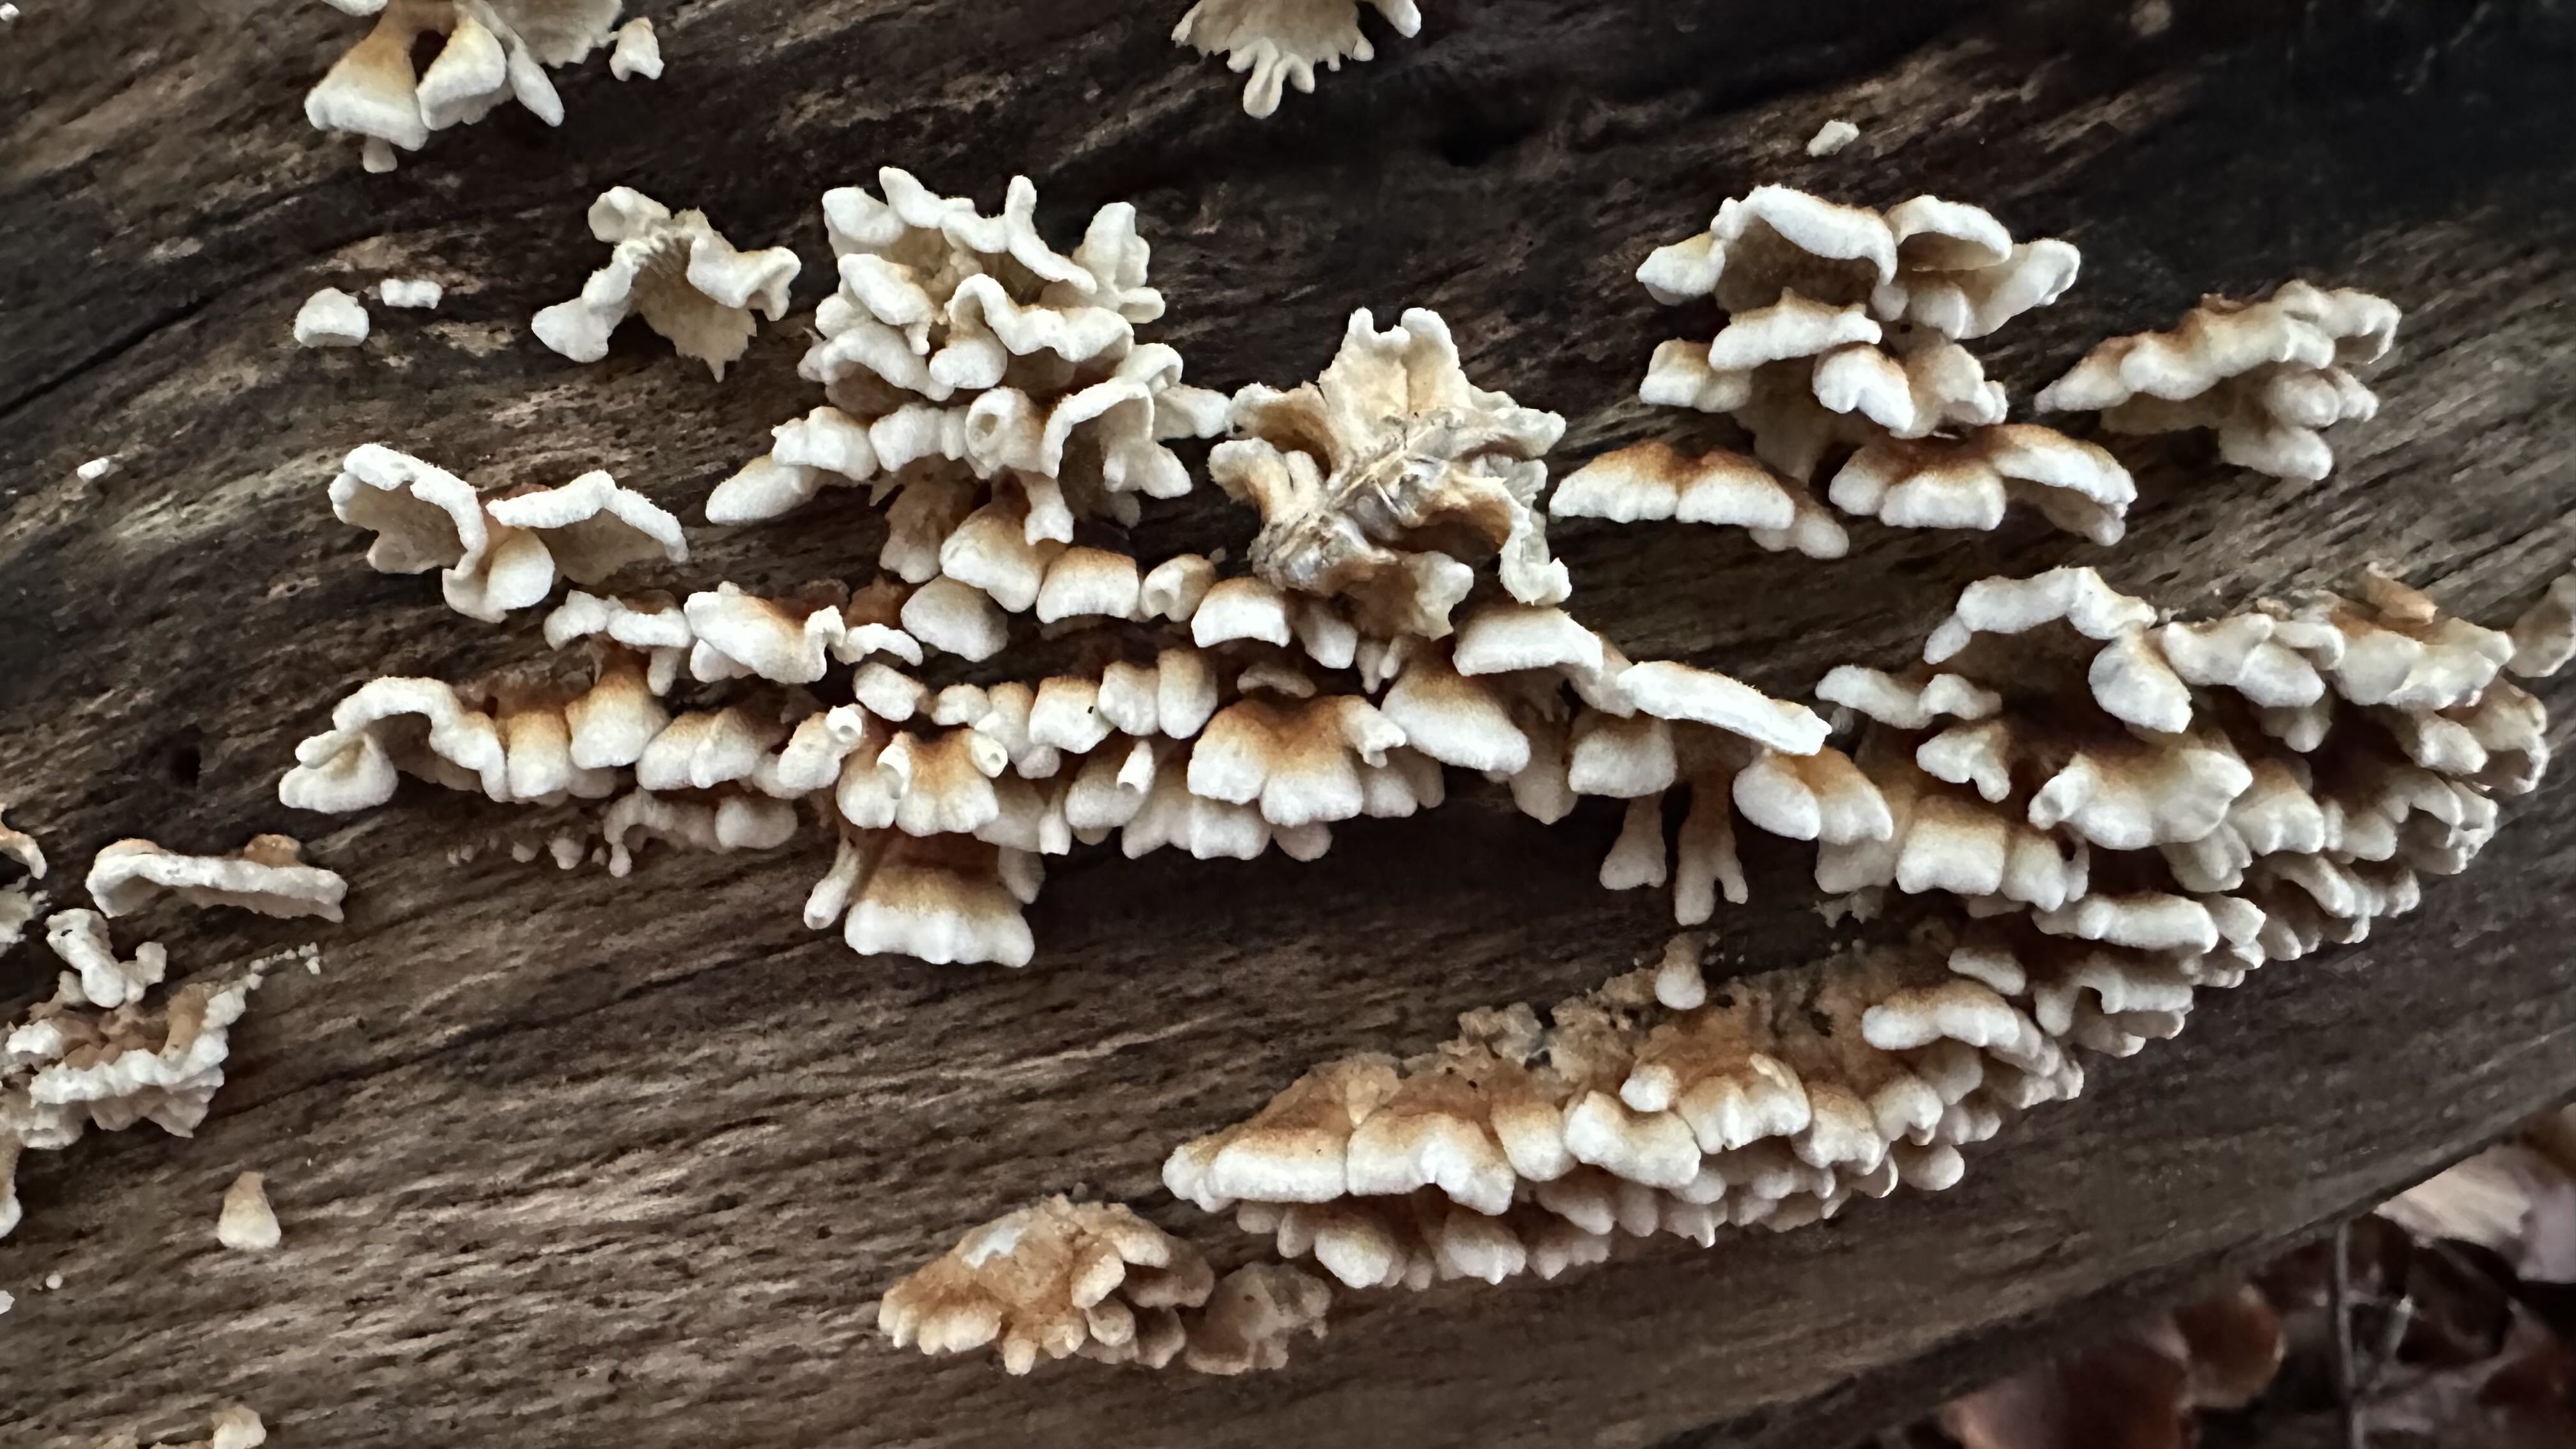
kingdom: Fungi
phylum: Basidiomycota
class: Agaricomycetes
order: Amylocorticiales
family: Amylocorticiaceae
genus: Plicaturopsis
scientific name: Plicaturopsis crispa
